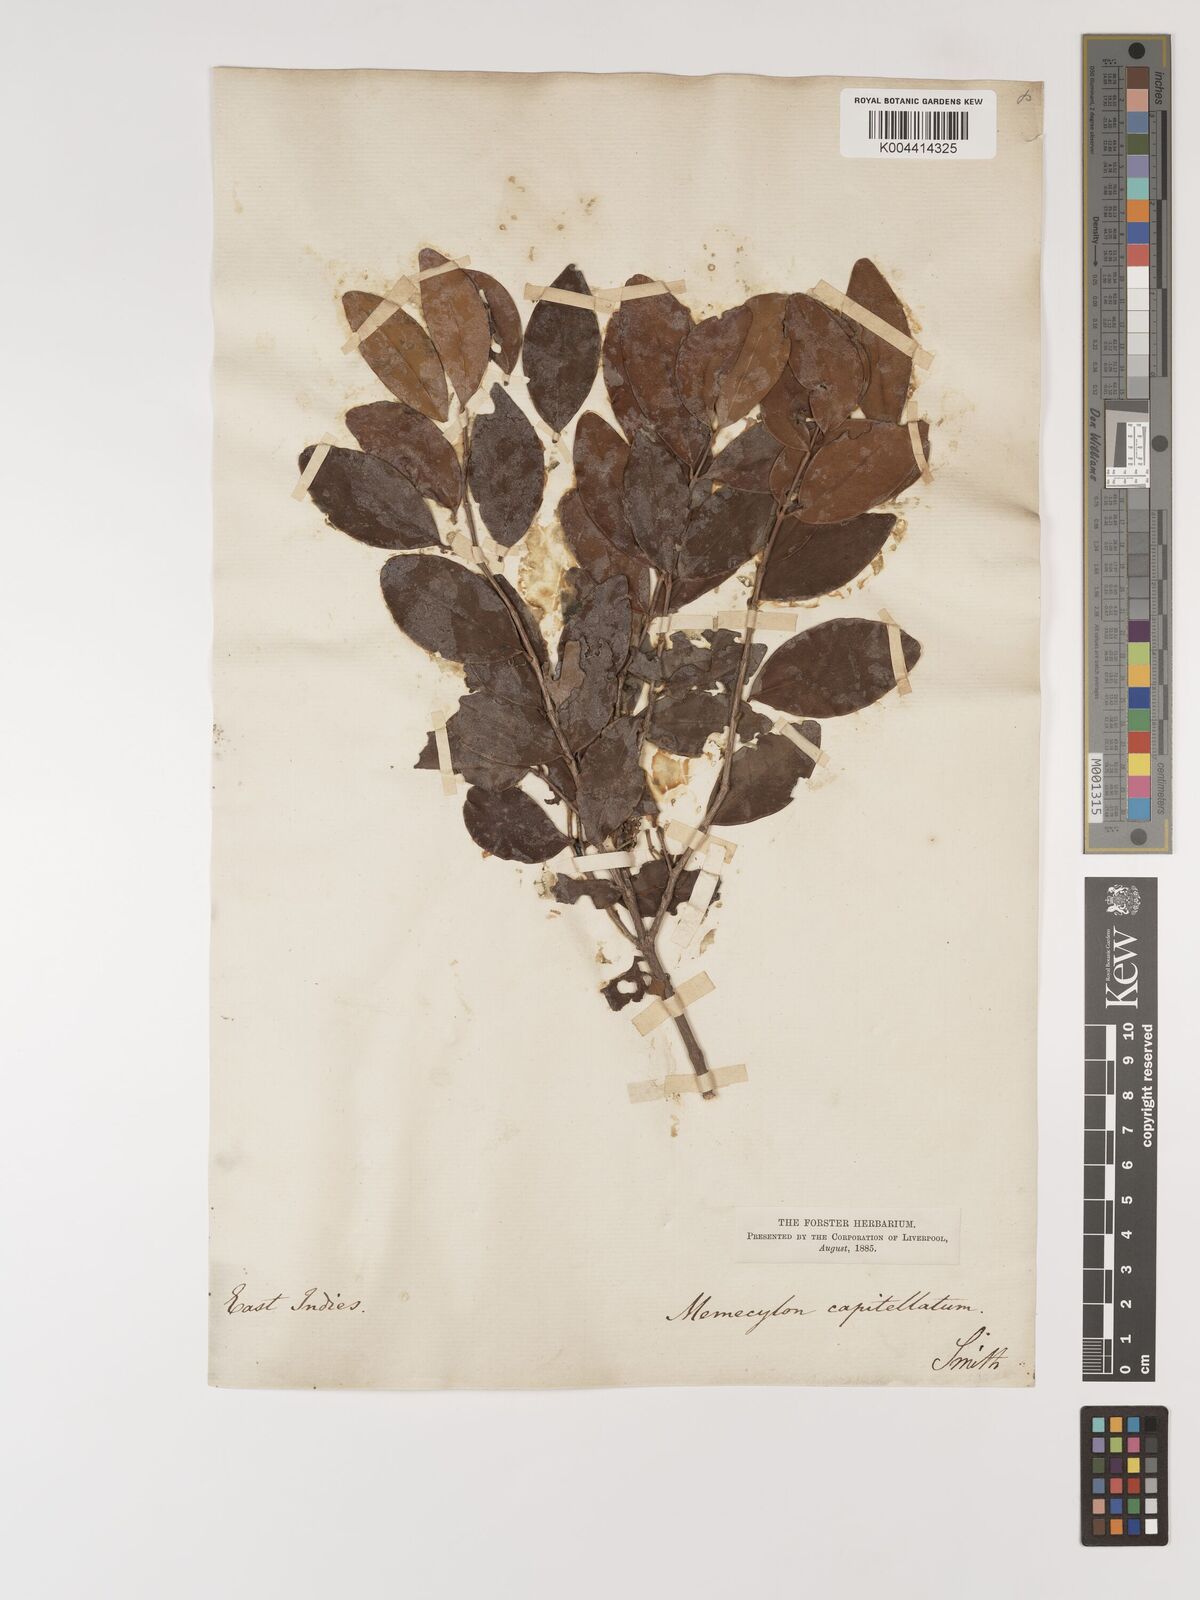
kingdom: Plantae
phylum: Tracheophyta
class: Magnoliopsida
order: Myrtales
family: Melastomataceae
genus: Memecylon
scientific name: Memecylon umbellatum
